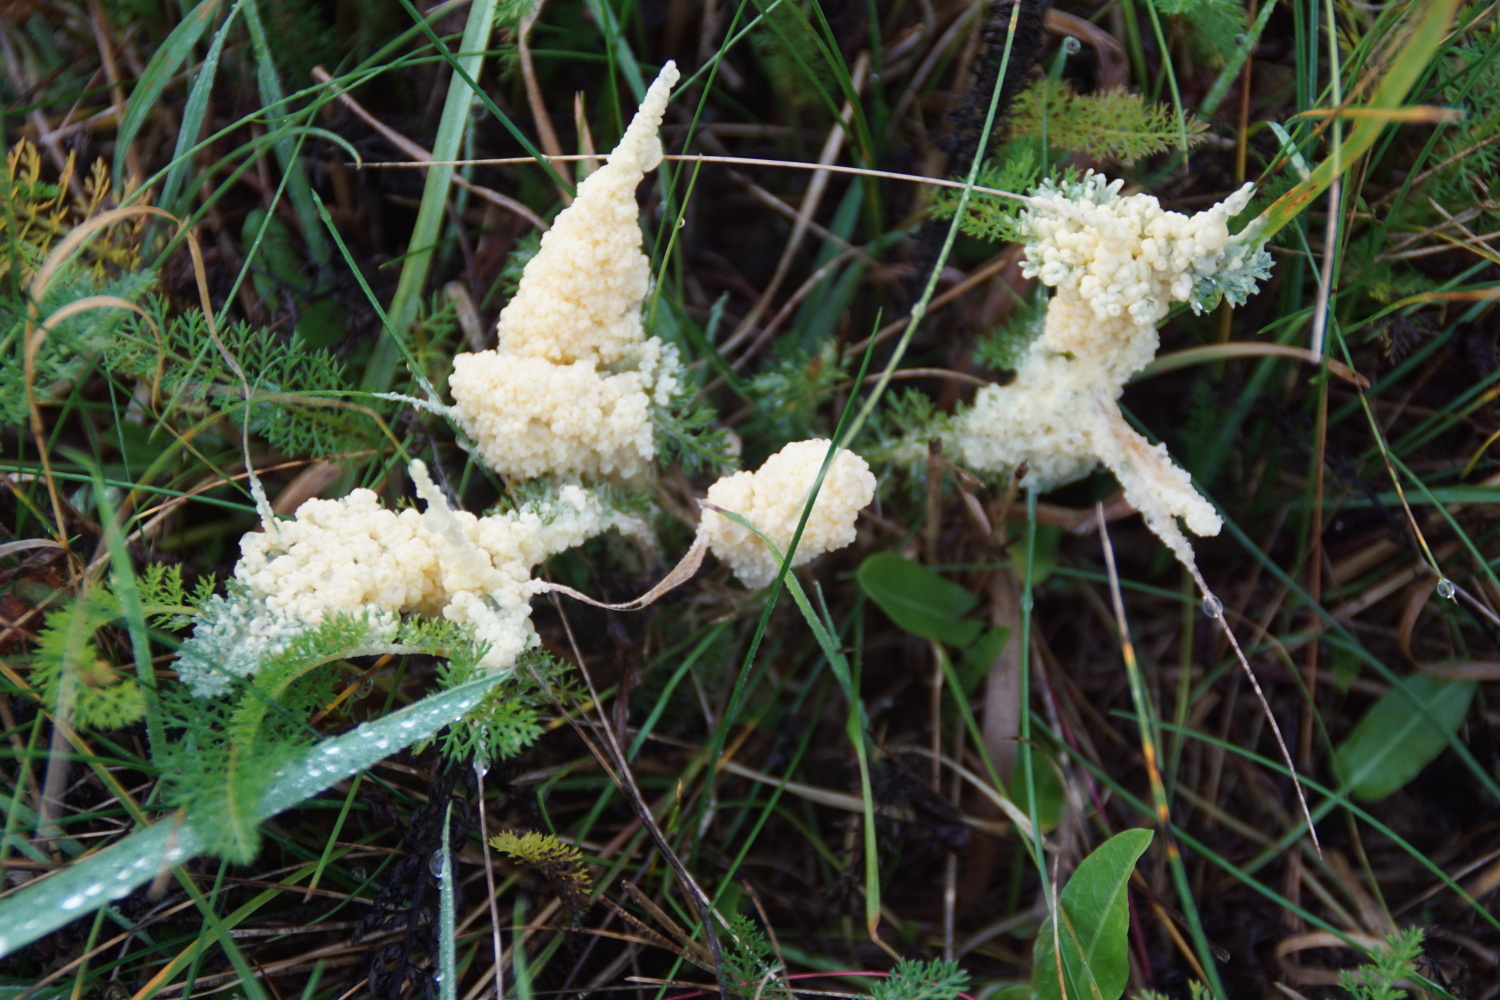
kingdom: Protozoa
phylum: Mycetozoa
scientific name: Mycetozoa
